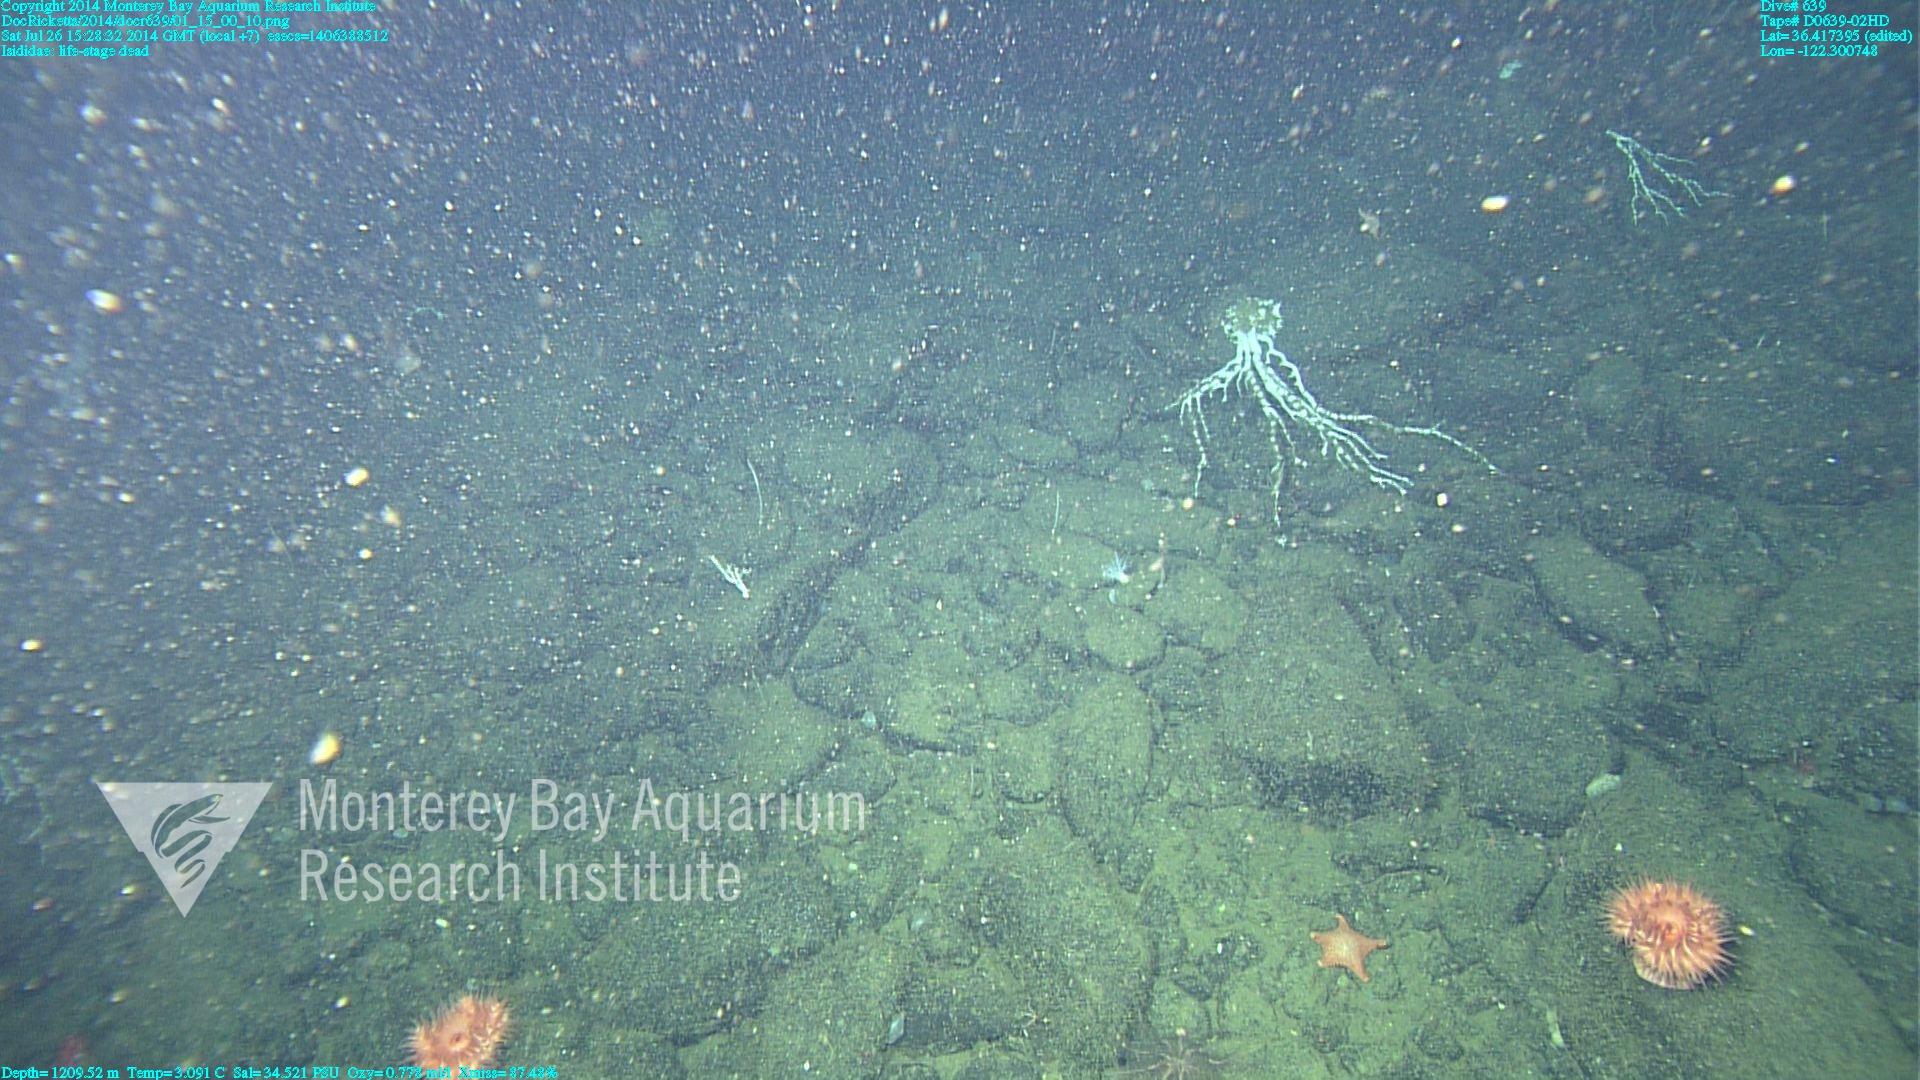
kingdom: Animalia
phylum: Cnidaria
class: Anthozoa
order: Scleralcyonacea
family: Keratoisididae
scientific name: Keratoisididae
